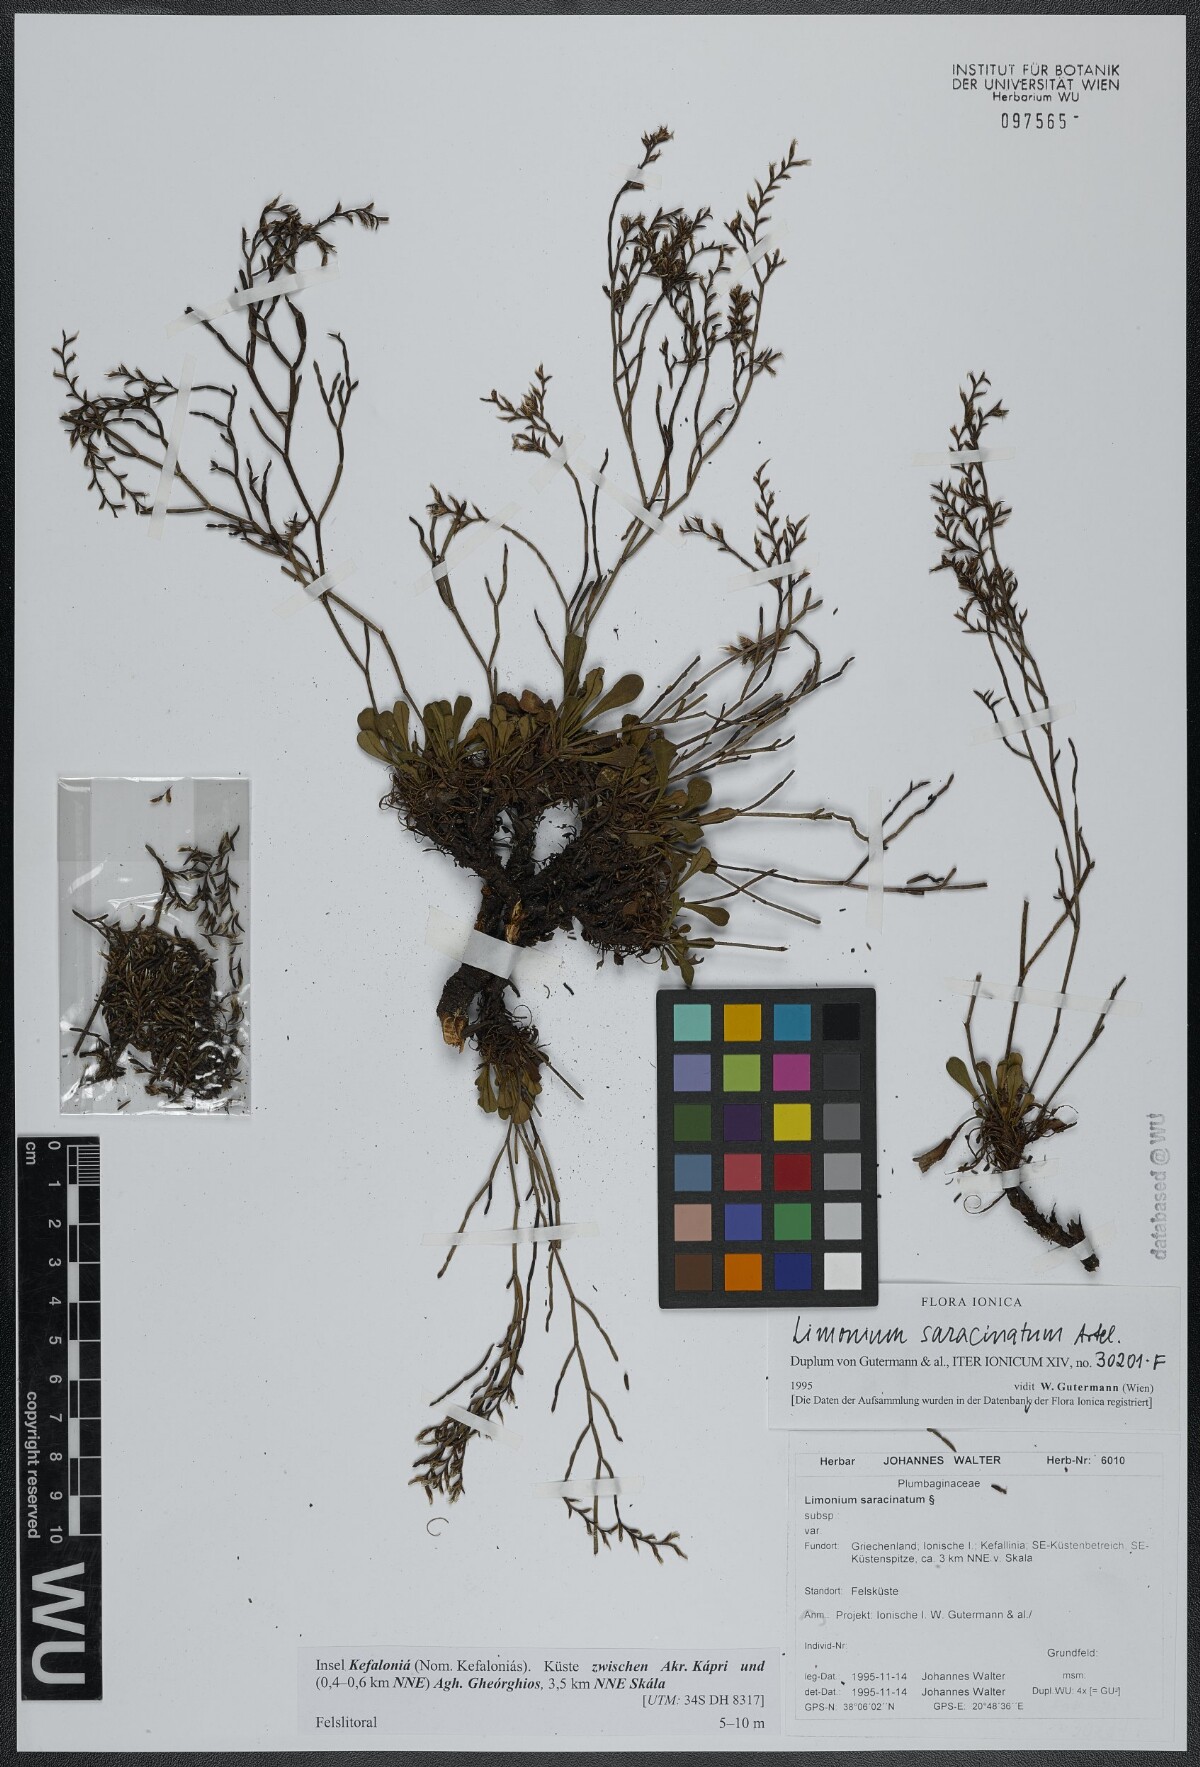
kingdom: Plantae
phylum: Tracheophyta
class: Magnoliopsida
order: Caryophyllales
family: Plumbaginaceae
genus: Limonium
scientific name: Limonium saracinatum
